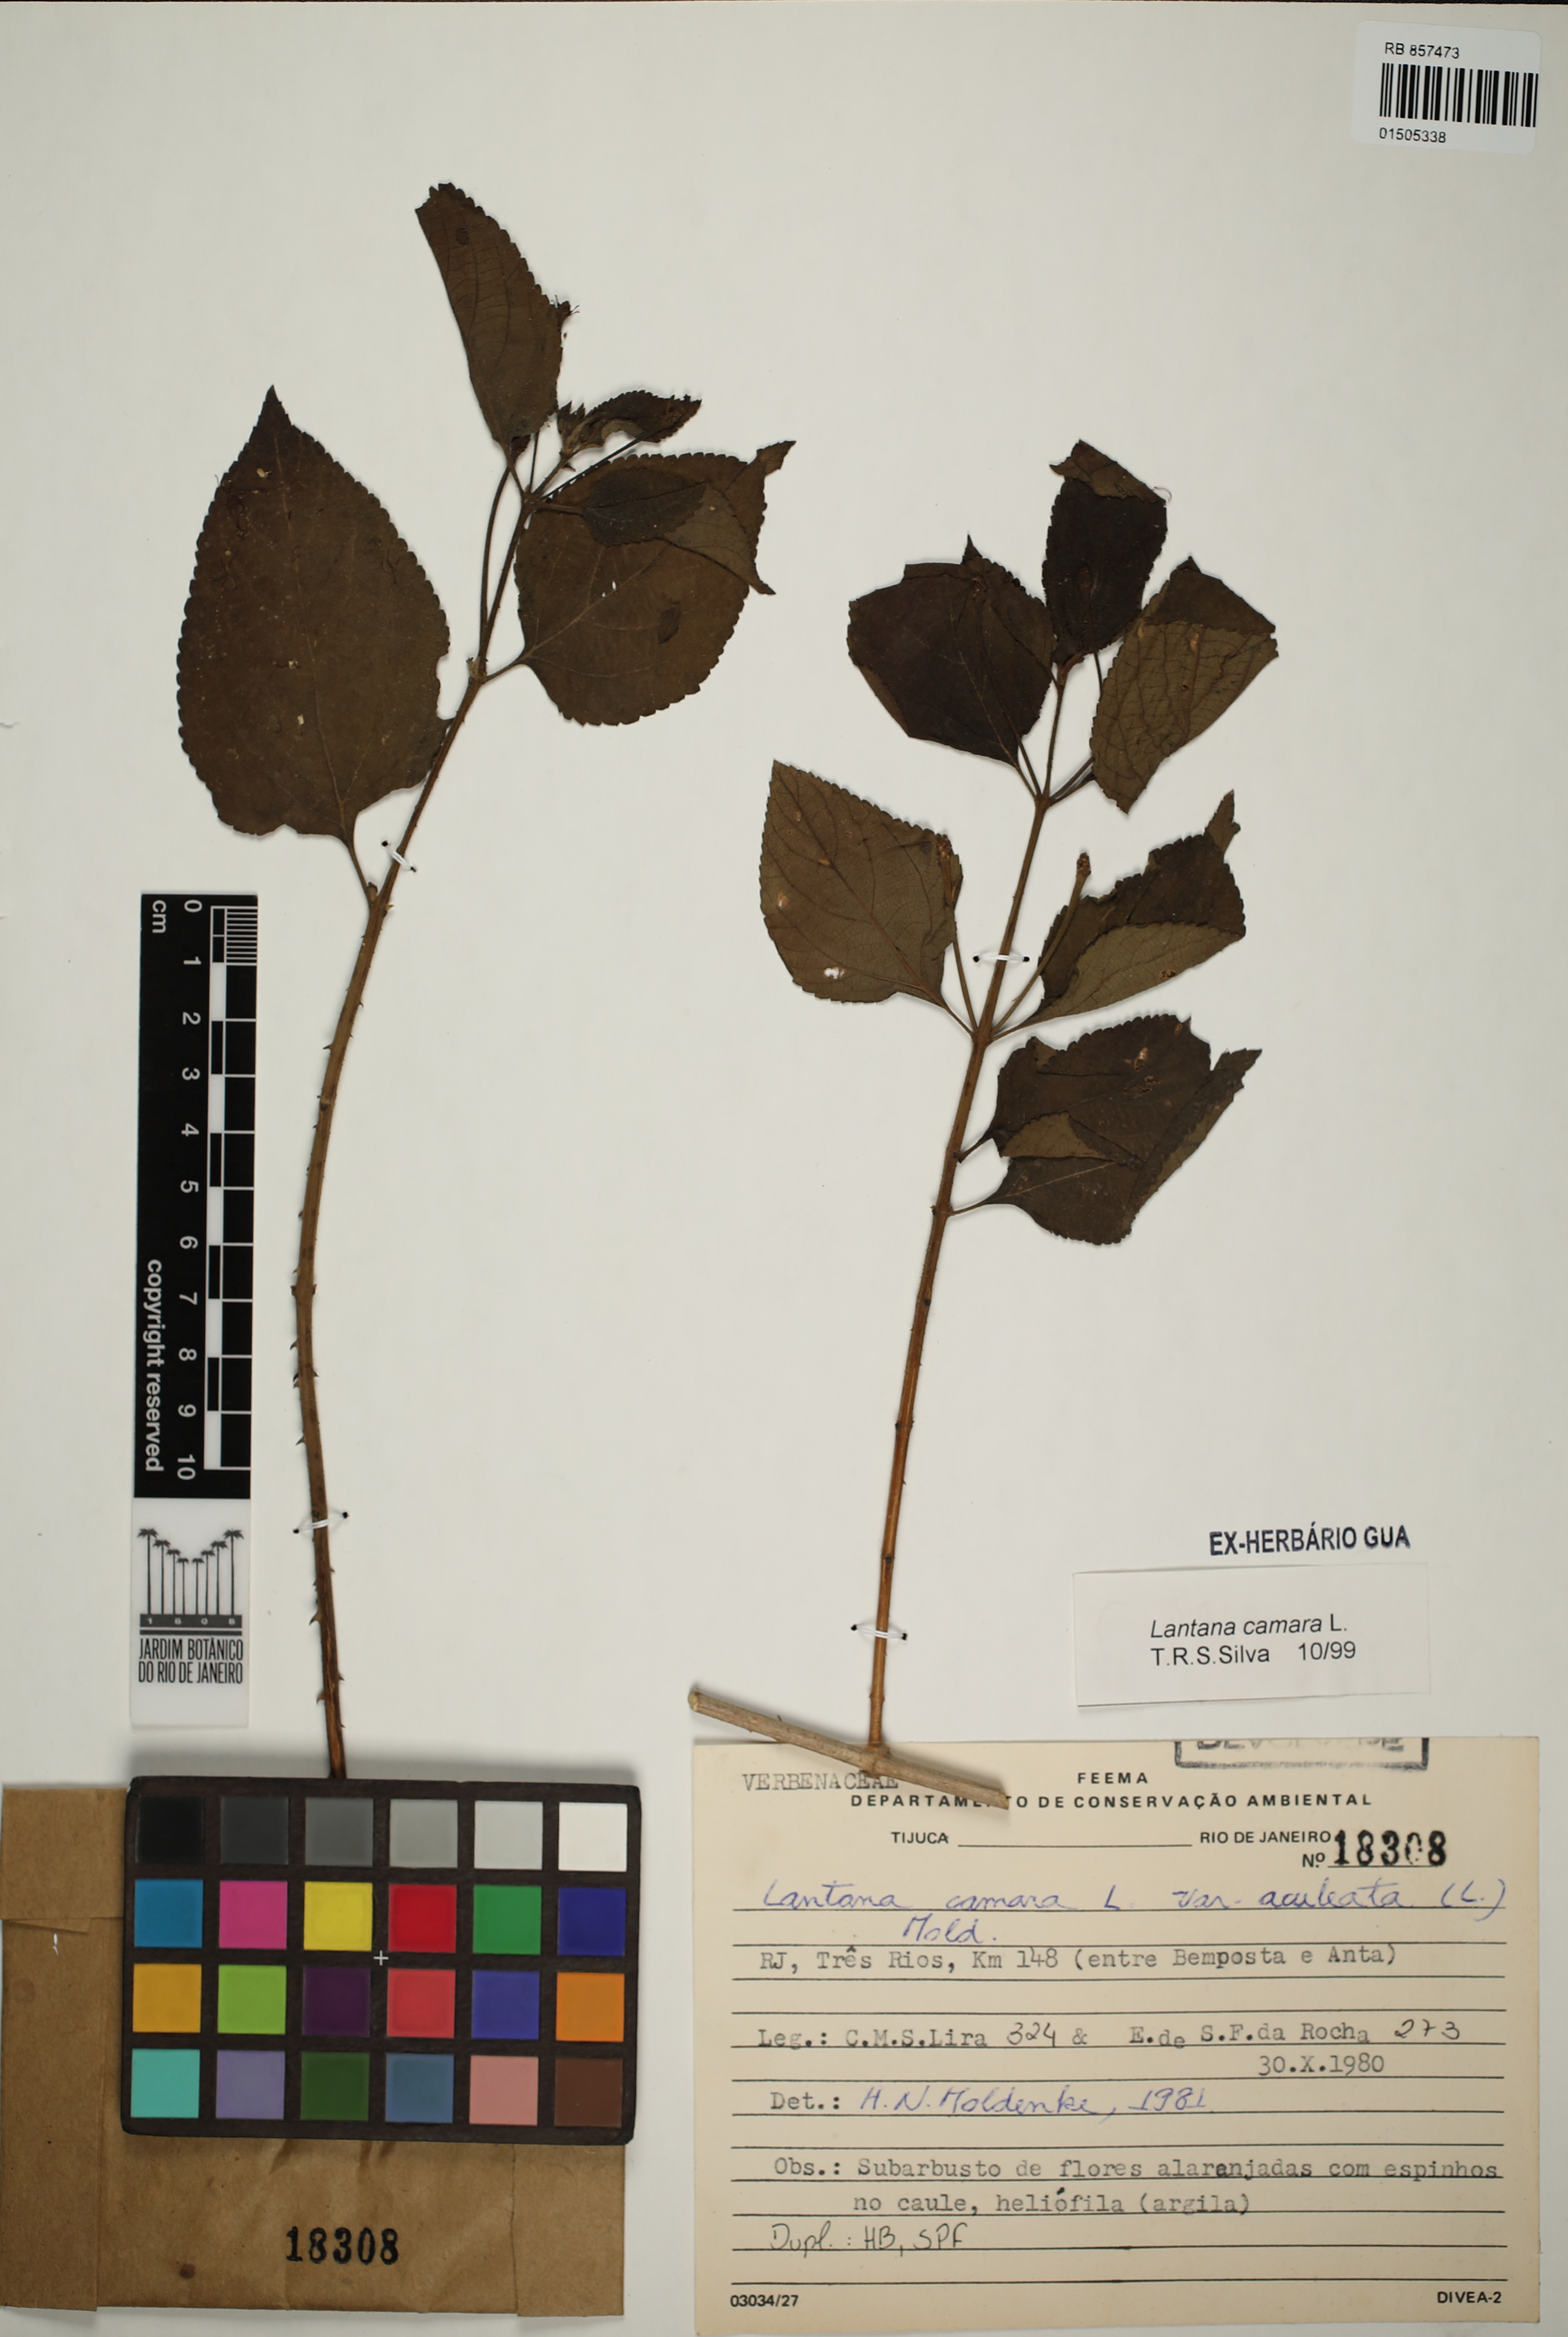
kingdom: Plantae
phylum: Tracheophyta
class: Magnoliopsida
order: Lamiales
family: Verbenaceae
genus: Lantana
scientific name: Lantana camara
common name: Lantana
